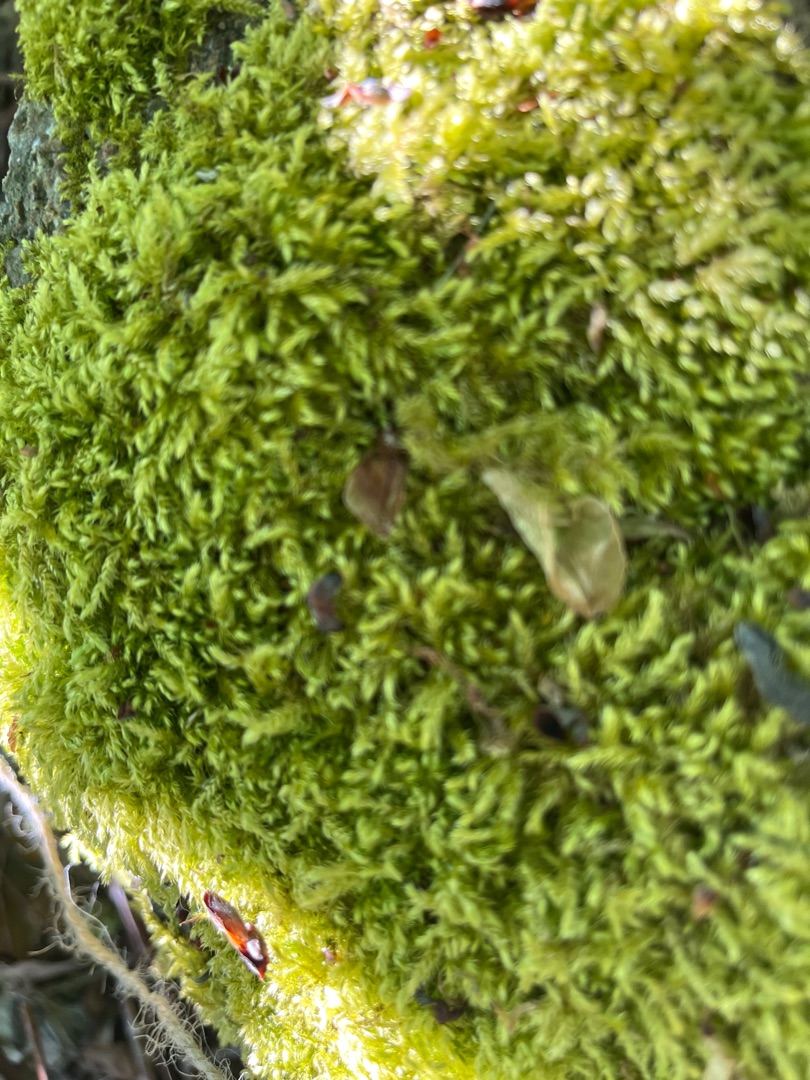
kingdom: Plantae
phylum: Bryophyta
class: Bryopsida
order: Hypnales
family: Brachytheciaceae
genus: Brachythecium
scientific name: Brachythecium rutabulum
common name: Almindelig kortkapsel
